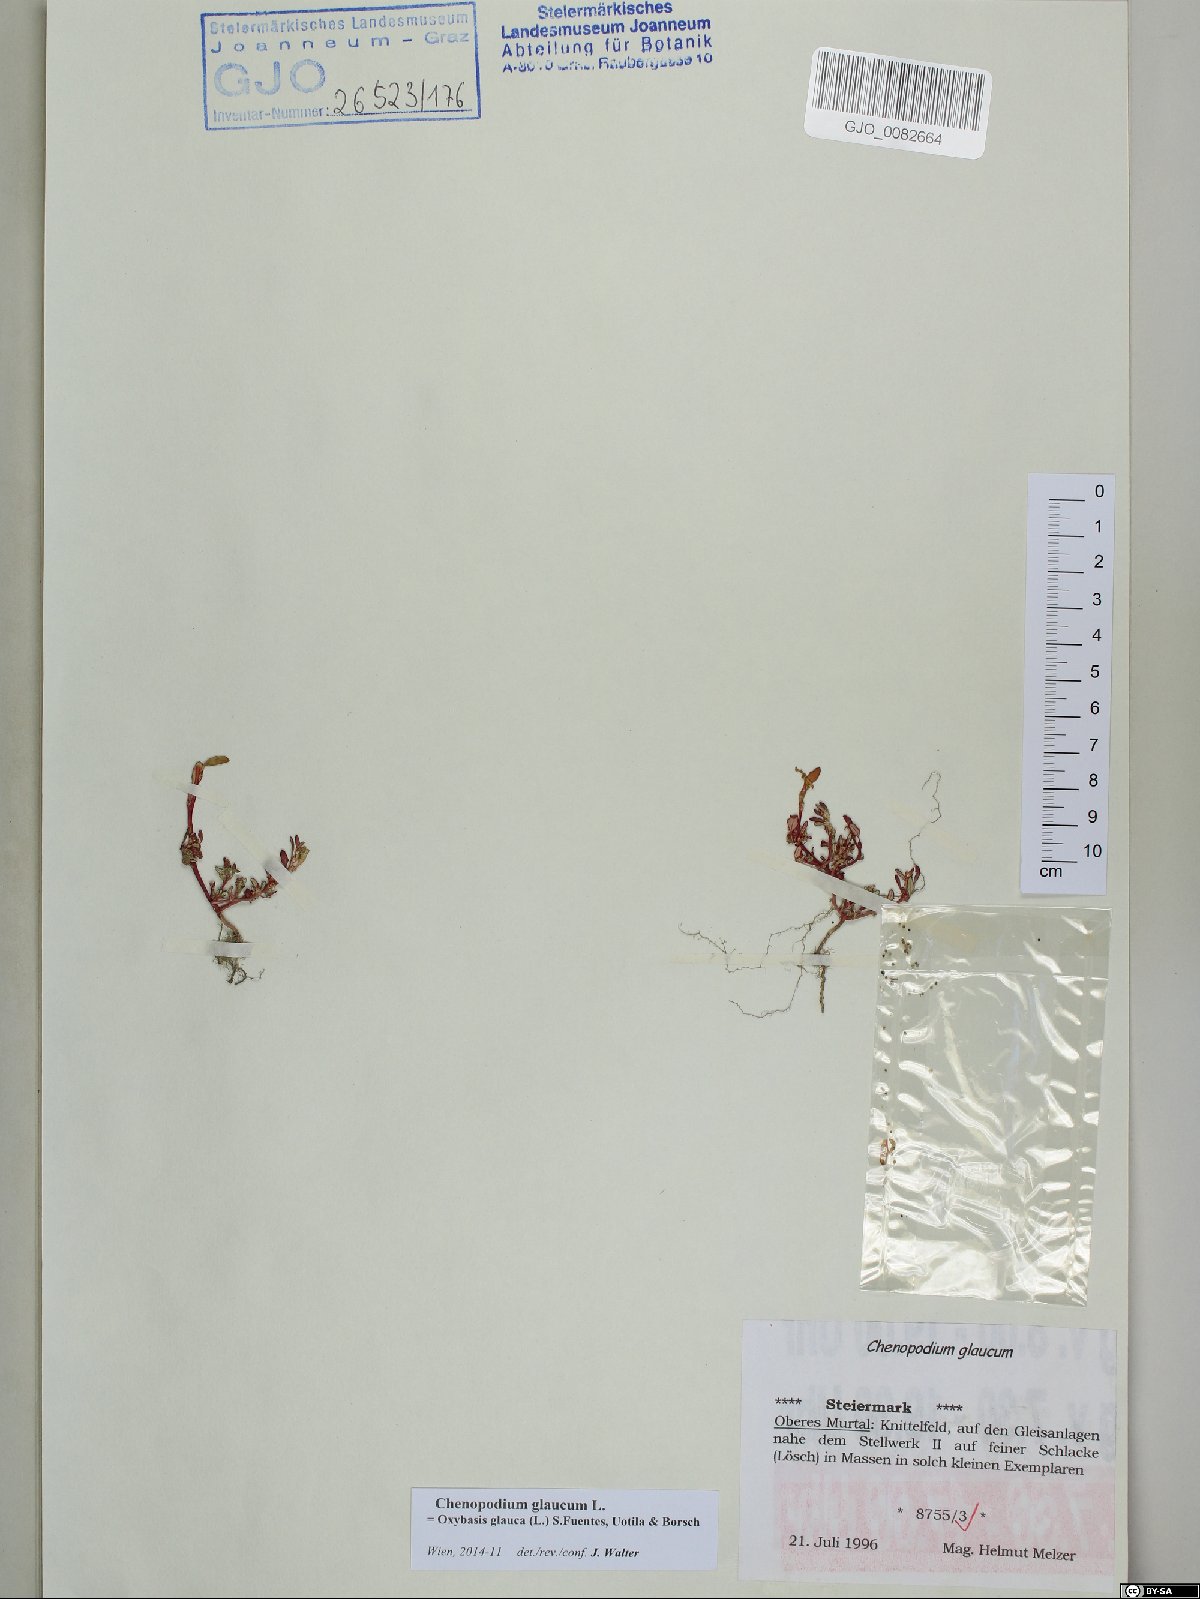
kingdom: Plantae
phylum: Tracheophyta
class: Magnoliopsida
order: Caryophyllales
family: Amaranthaceae
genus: Oxybasis
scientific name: Oxybasis glauca
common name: Glaucous goosefoot
